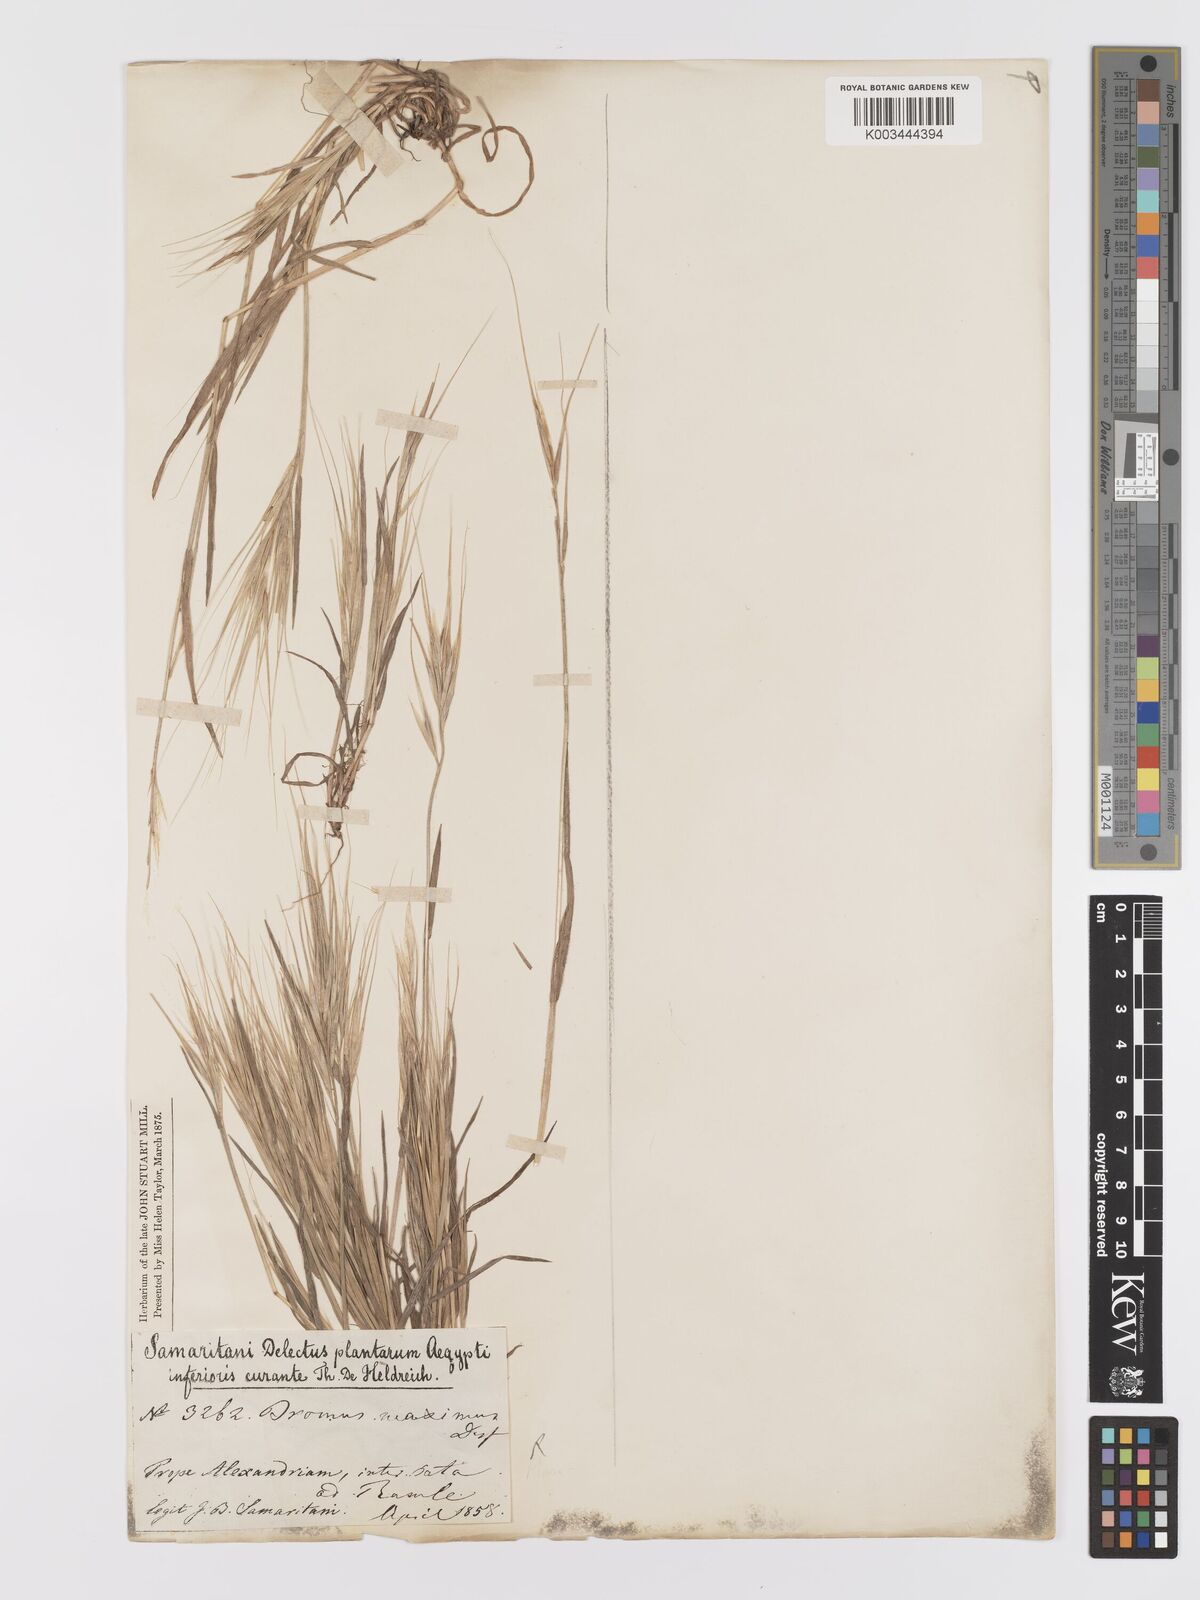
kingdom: Plantae
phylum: Tracheophyta
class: Liliopsida
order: Poales
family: Poaceae
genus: Bromus
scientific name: Bromus
